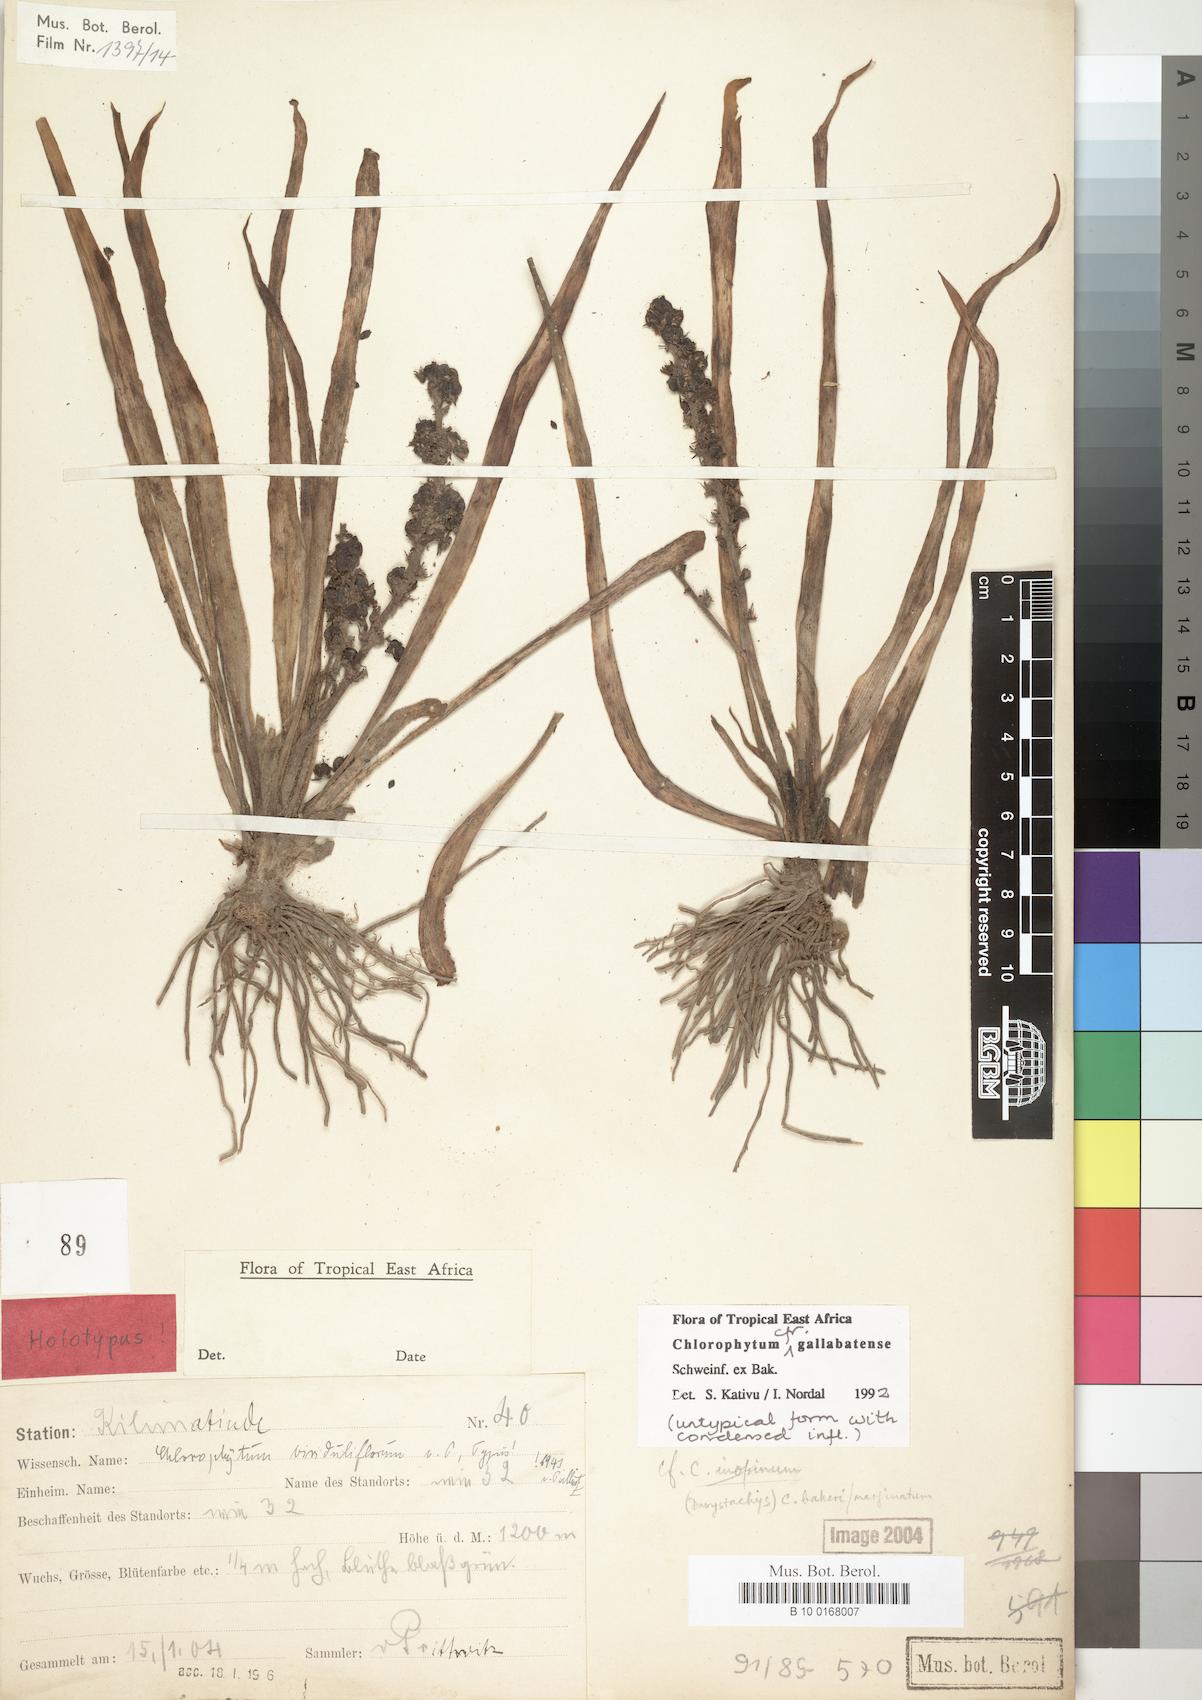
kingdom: Plantae
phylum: Tracheophyta
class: Liliopsida
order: Asparagales
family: Asparagaceae
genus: Chlorophytum
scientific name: Chlorophytum gallabatense
